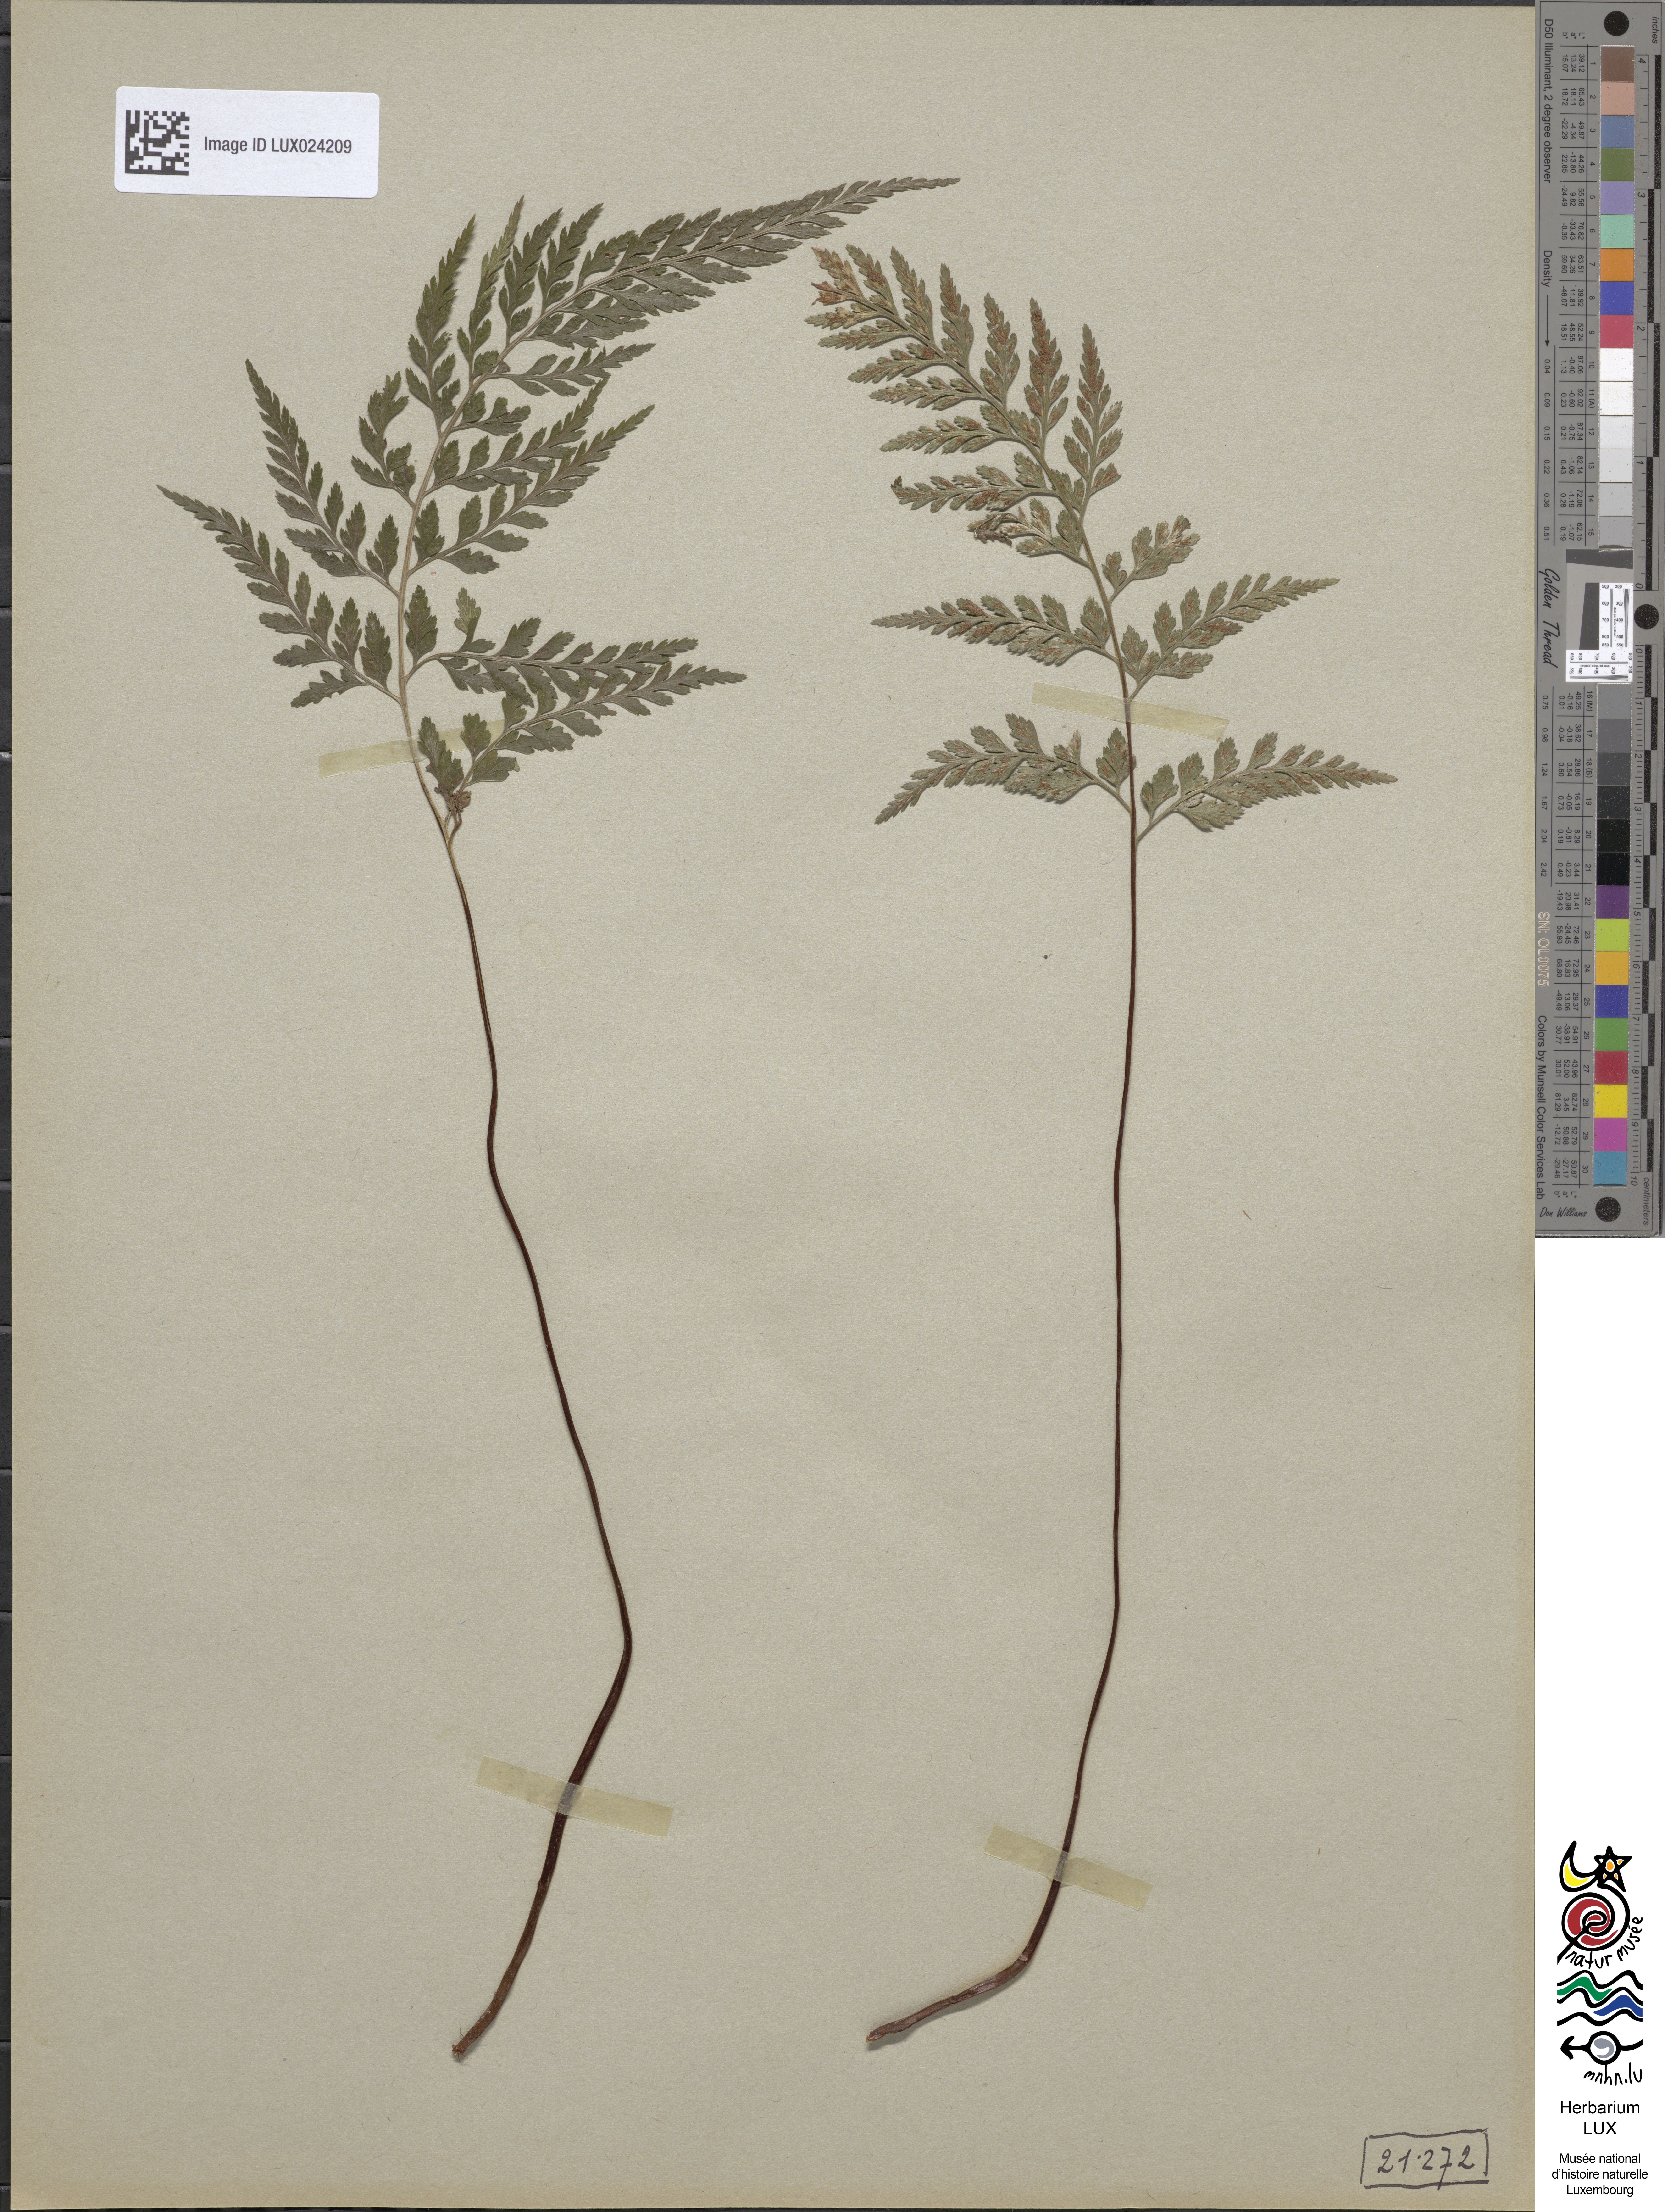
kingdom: Plantae
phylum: Tracheophyta
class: Polypodiopsida
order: Polypodiales
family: Aspleniaceae
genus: Asplenium
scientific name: Asplenium onopteris
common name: Irish spleenwort
